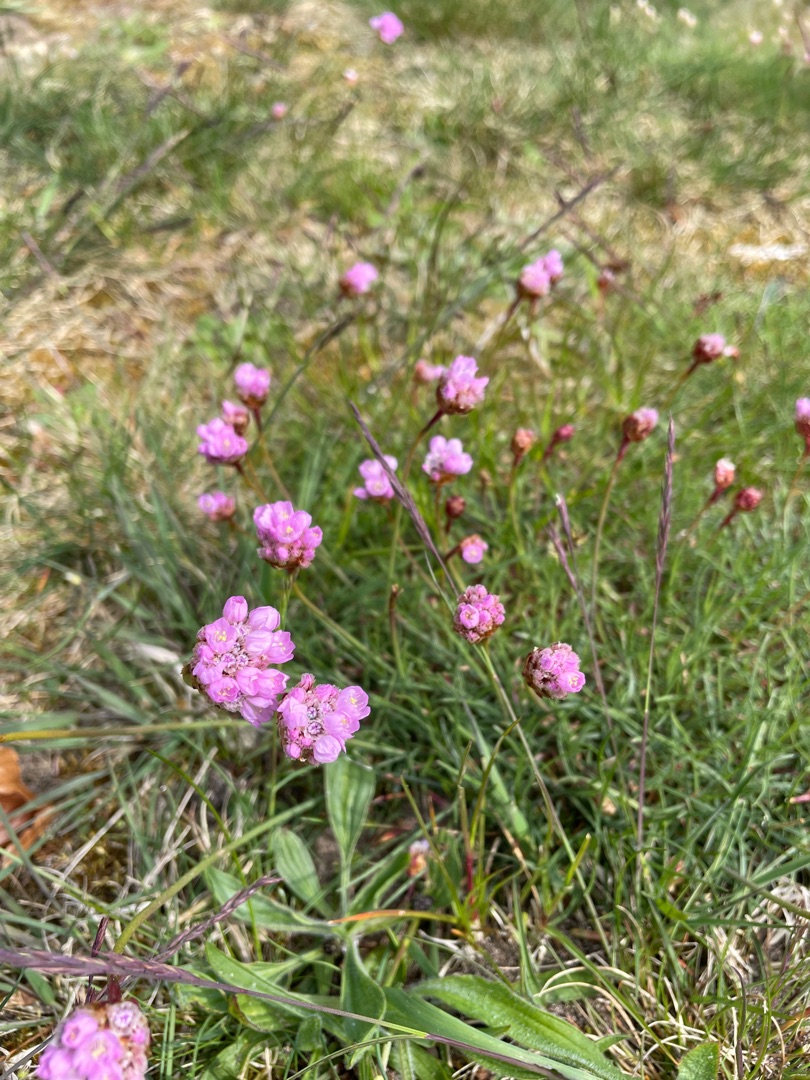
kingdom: Plantae
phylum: Tracheophyta
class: Magnoliopsida
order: Caryophyllales
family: Plumbaginaceae
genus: Armeria
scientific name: Armeria maritima
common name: Engelskgræs
